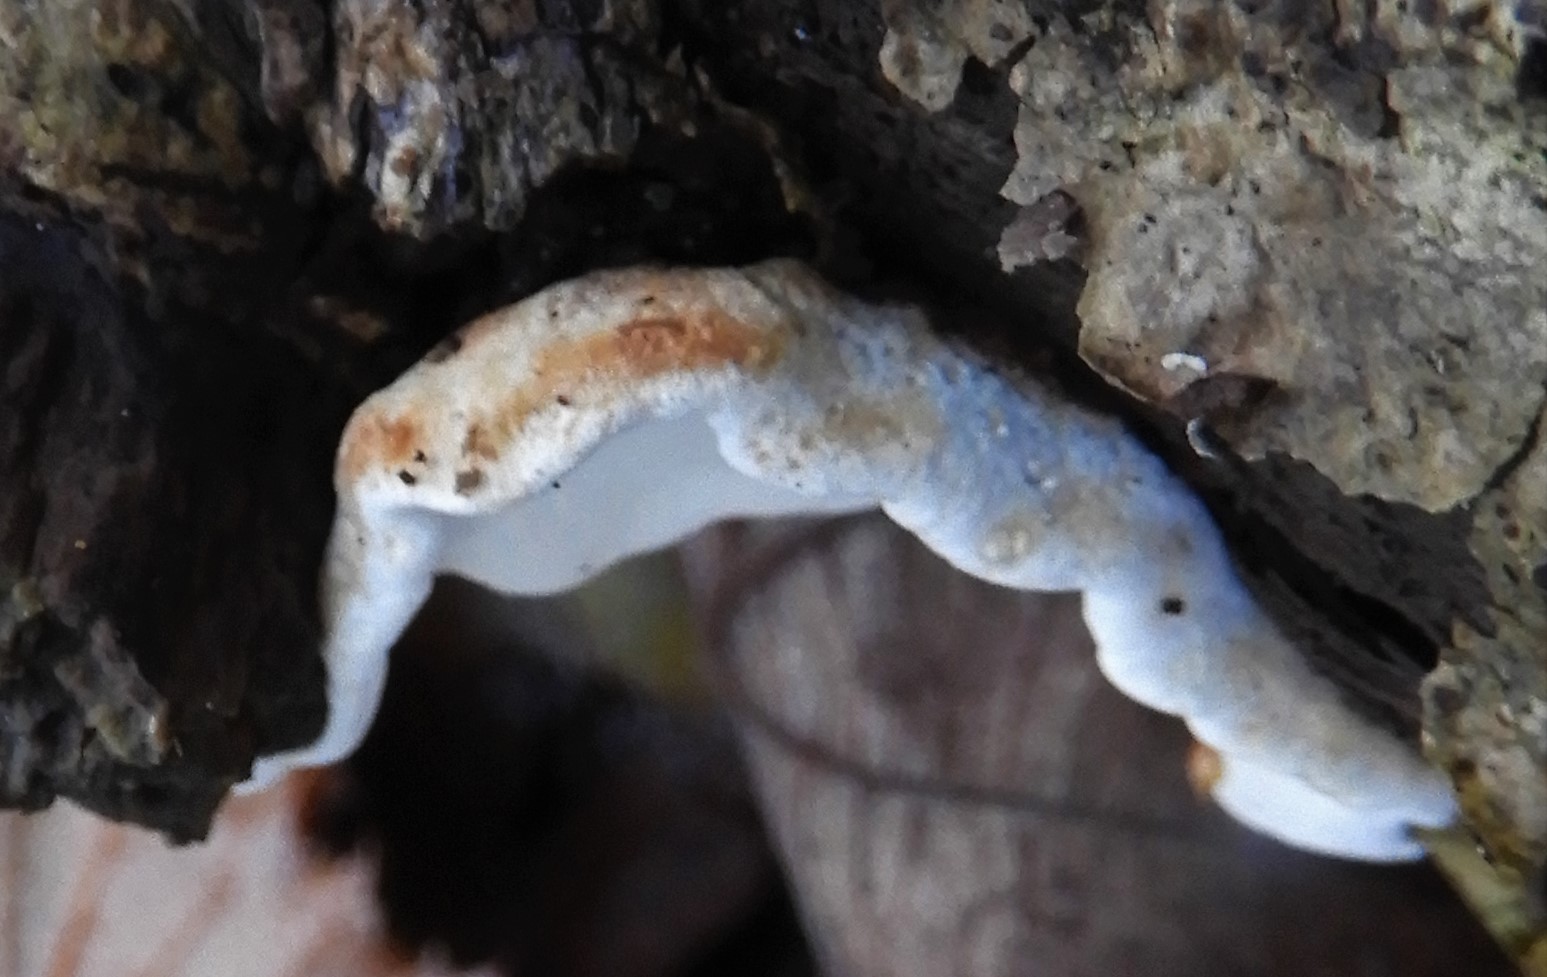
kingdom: Fungi
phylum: Basidiomycota
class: Agaricomycetes
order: Polyporales
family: Incrustoporiaceae
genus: Skeletocutis
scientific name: Skeletocutis nemoralis
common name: stor krystalporesvamp
